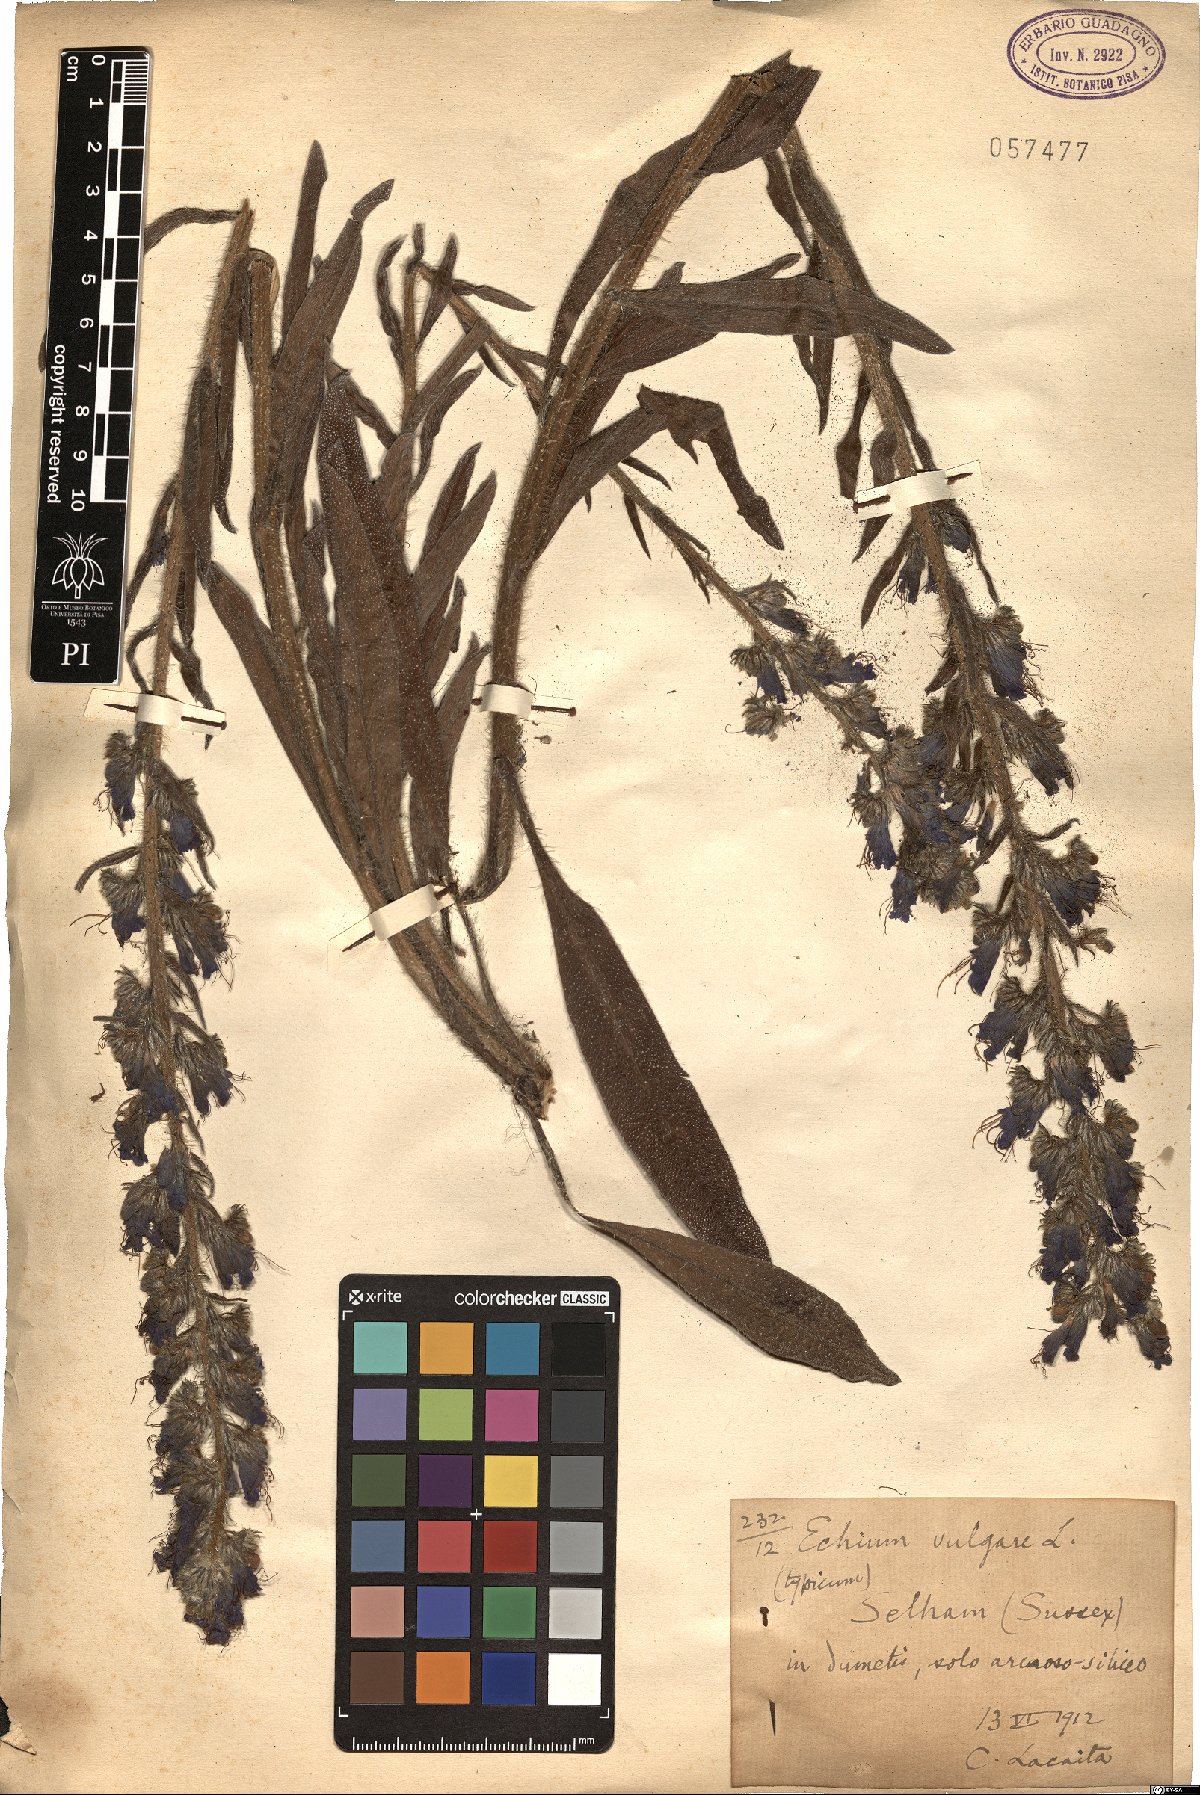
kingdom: Plantae
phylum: Tracheophyta
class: Magnoliopsida
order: Boraginales
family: Boraginaceae
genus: Echium
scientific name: Echium vulgare
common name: Common viper's bugloss
